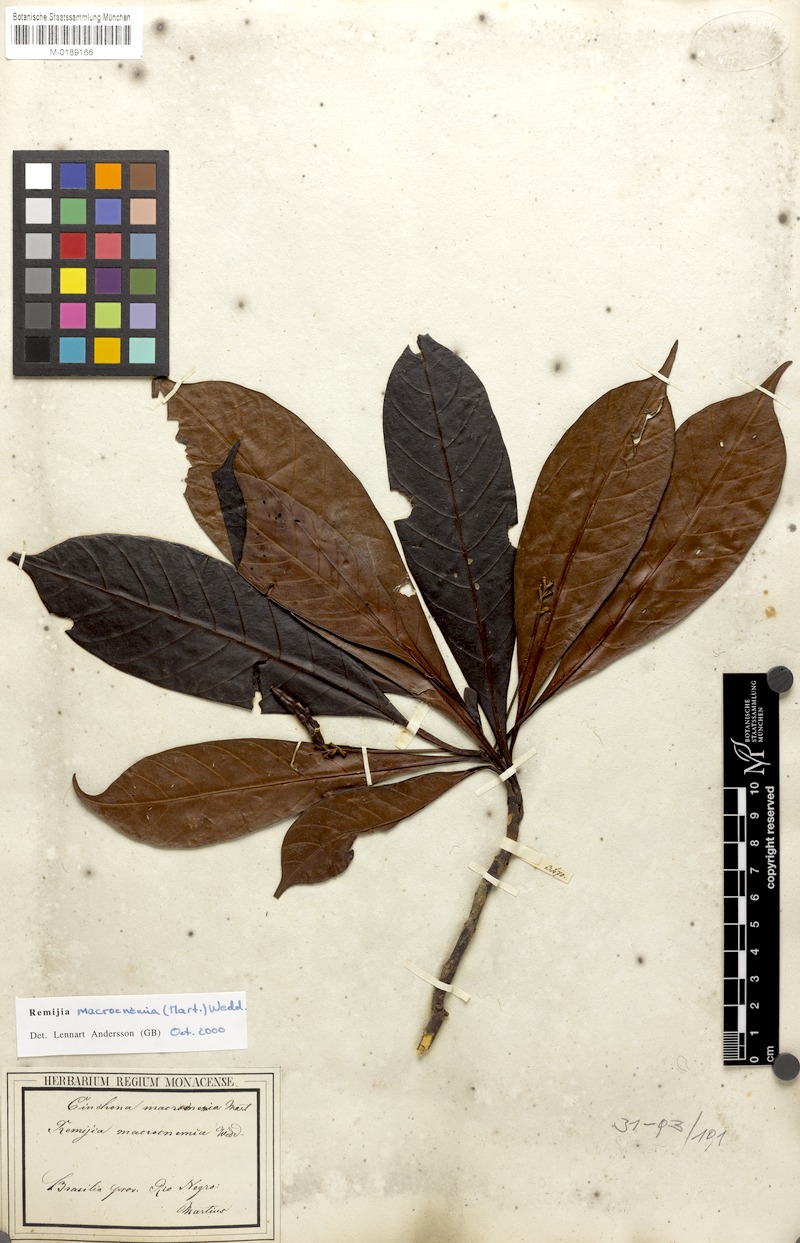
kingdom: Plantae
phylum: Tracheophyta
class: Magnoliopsida
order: Gentianales
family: Rubiaceae
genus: Remijia
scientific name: Remijia macrocnemia
